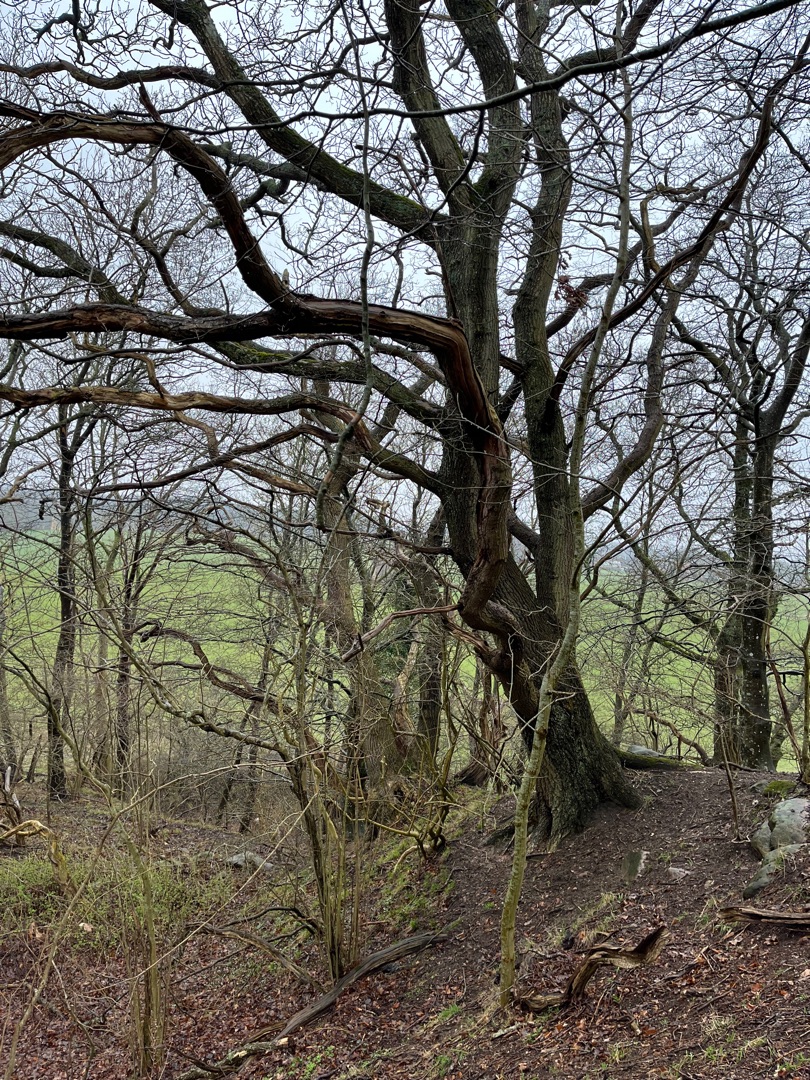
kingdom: Plantae
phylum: Tracheophyta
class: Magnoliopsida
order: Fagales
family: Fagaceae
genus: Quercus
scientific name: Quercus robur
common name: Stilk-eg/almindelig eg
